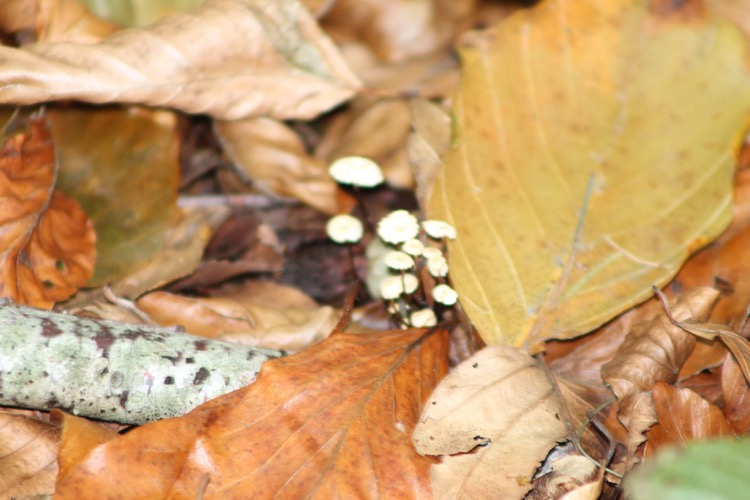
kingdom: Fungi
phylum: Basidiomycota
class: Agaricomycetes
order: Agaricales
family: Marasmiaceae
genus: Marasmius
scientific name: Marasmius
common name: bruskhat
